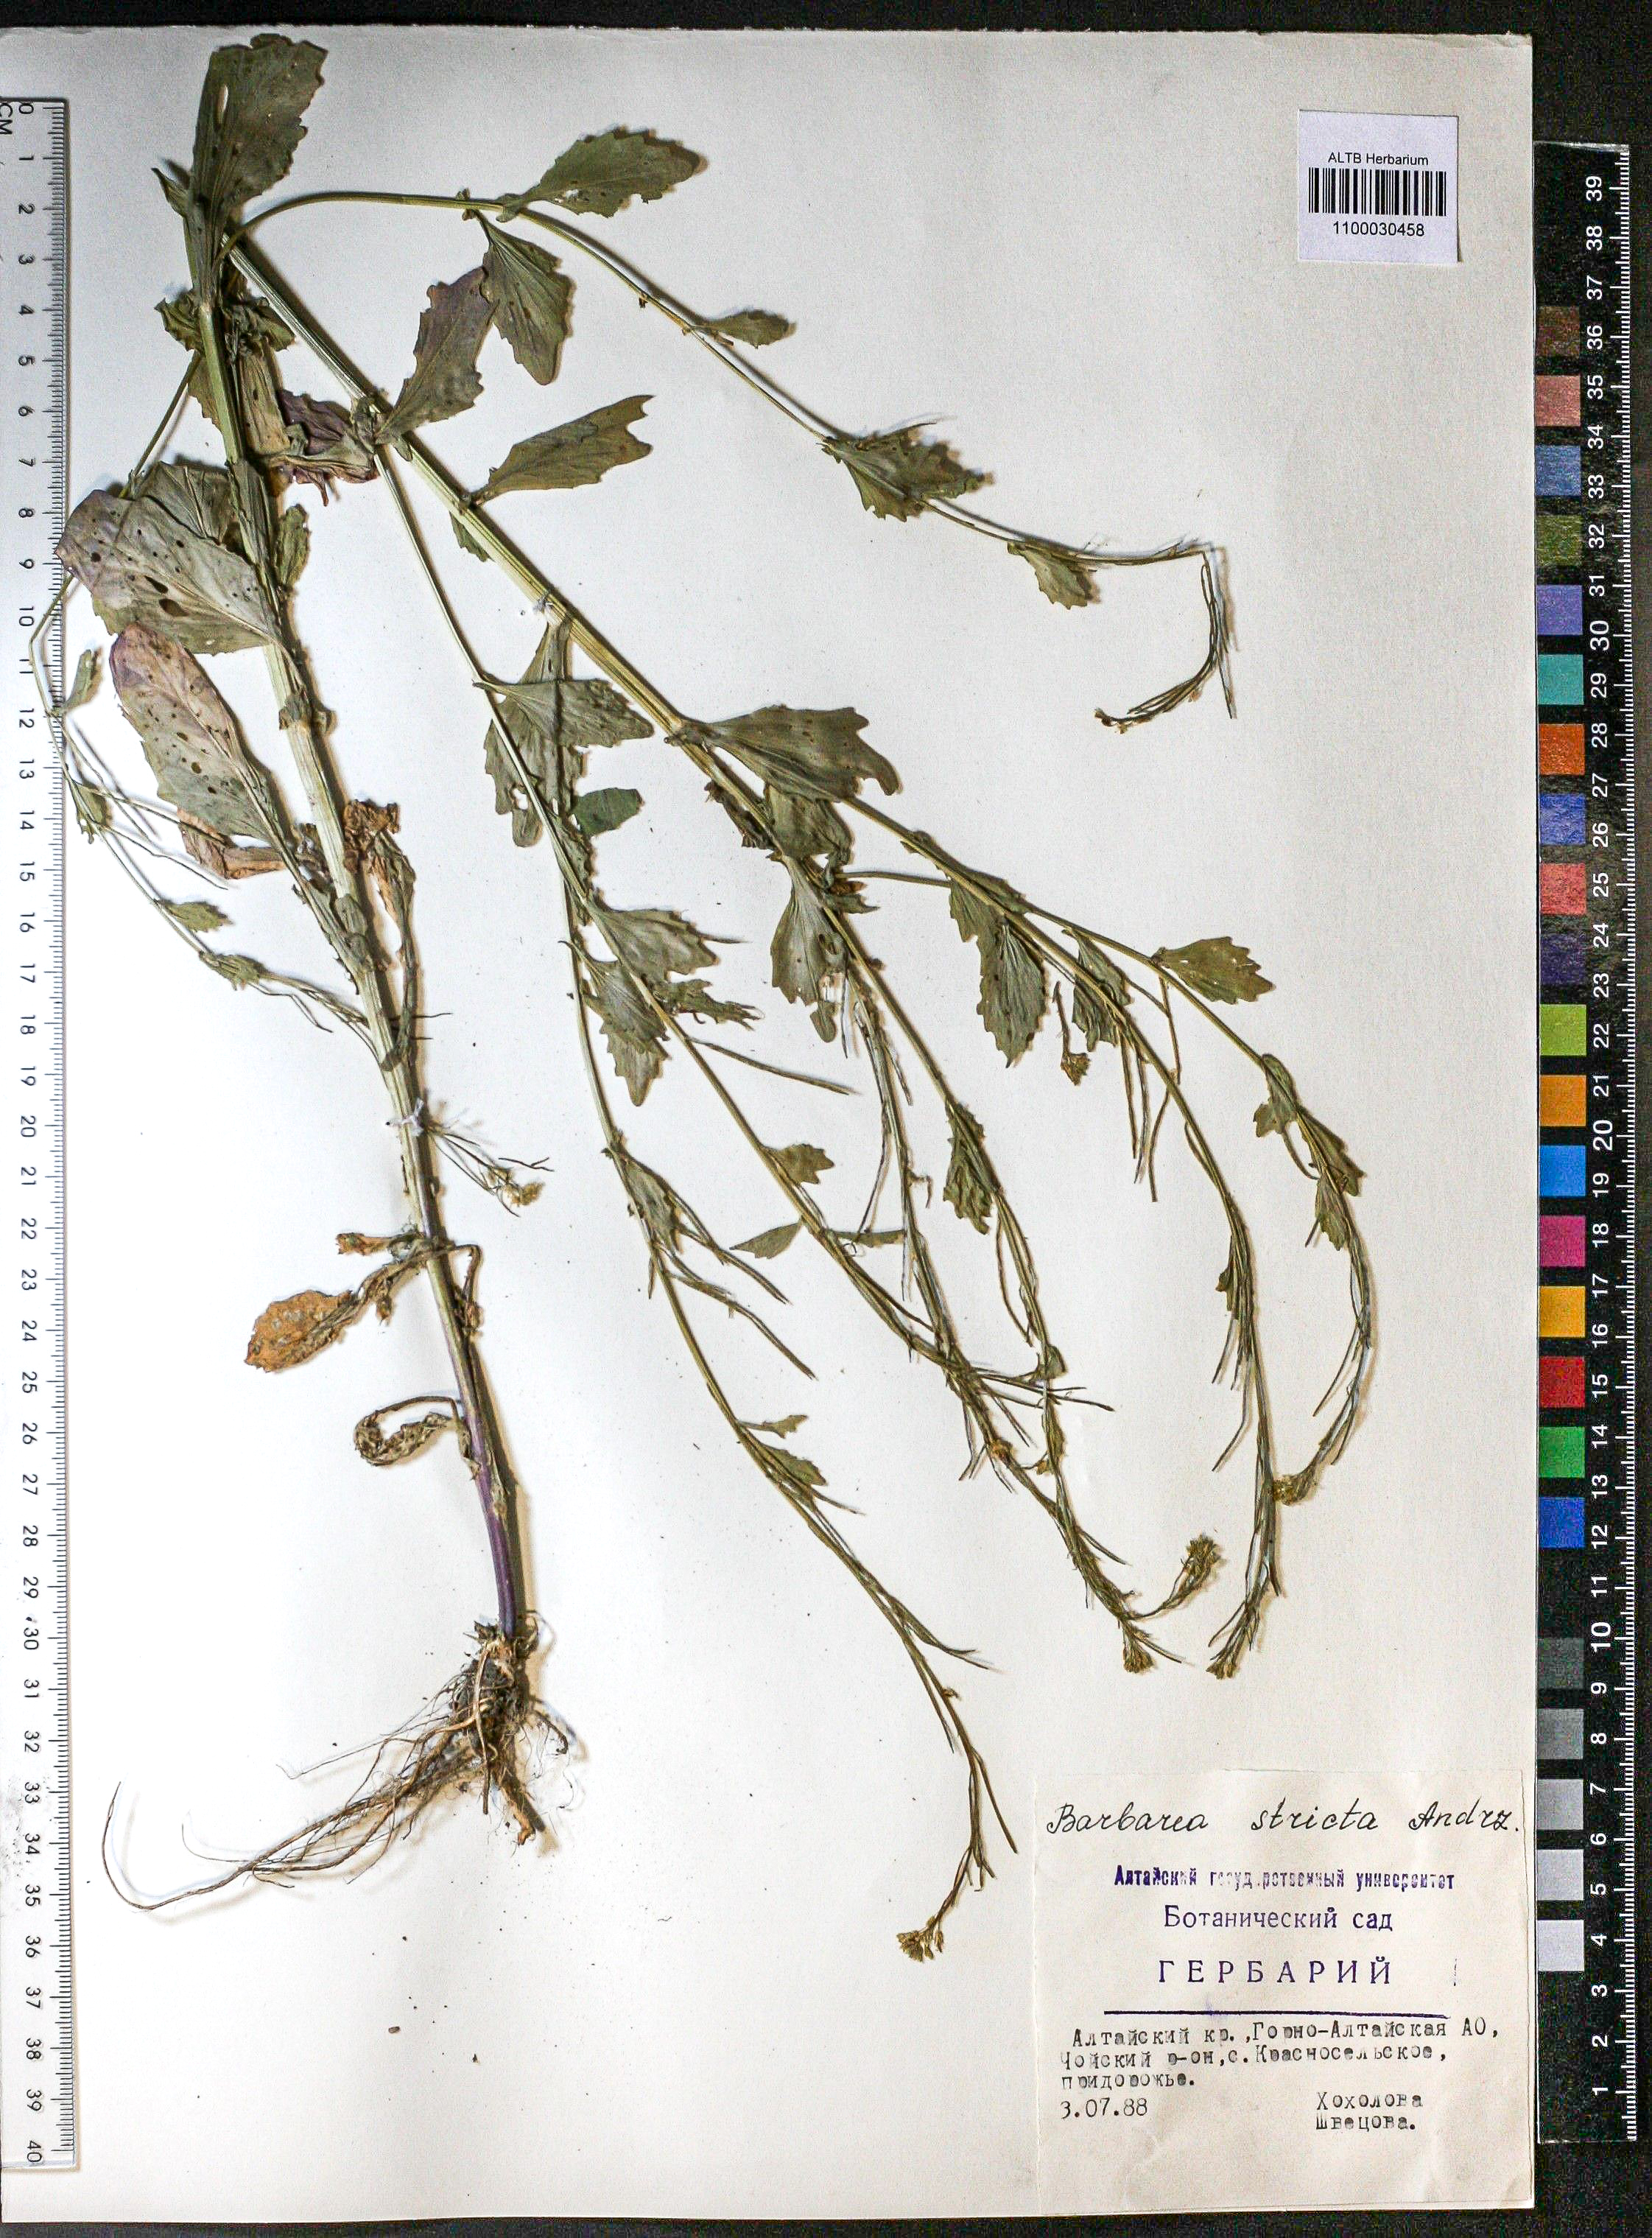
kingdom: Plantae
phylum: Tracheophyta
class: Magnoliopsida
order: Brassicales
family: Brassicaceae
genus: Barbarea
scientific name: Barbarea vulgaris
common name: Cressy-greens
